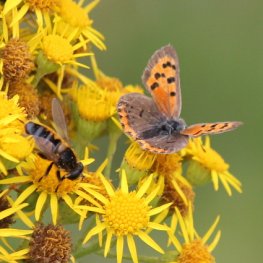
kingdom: Animalia
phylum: Arthropoda
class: Insecta
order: Lepidoptera
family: Lycaenidae
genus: Lycaena
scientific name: Lycaena phlaeas
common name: American Copper
